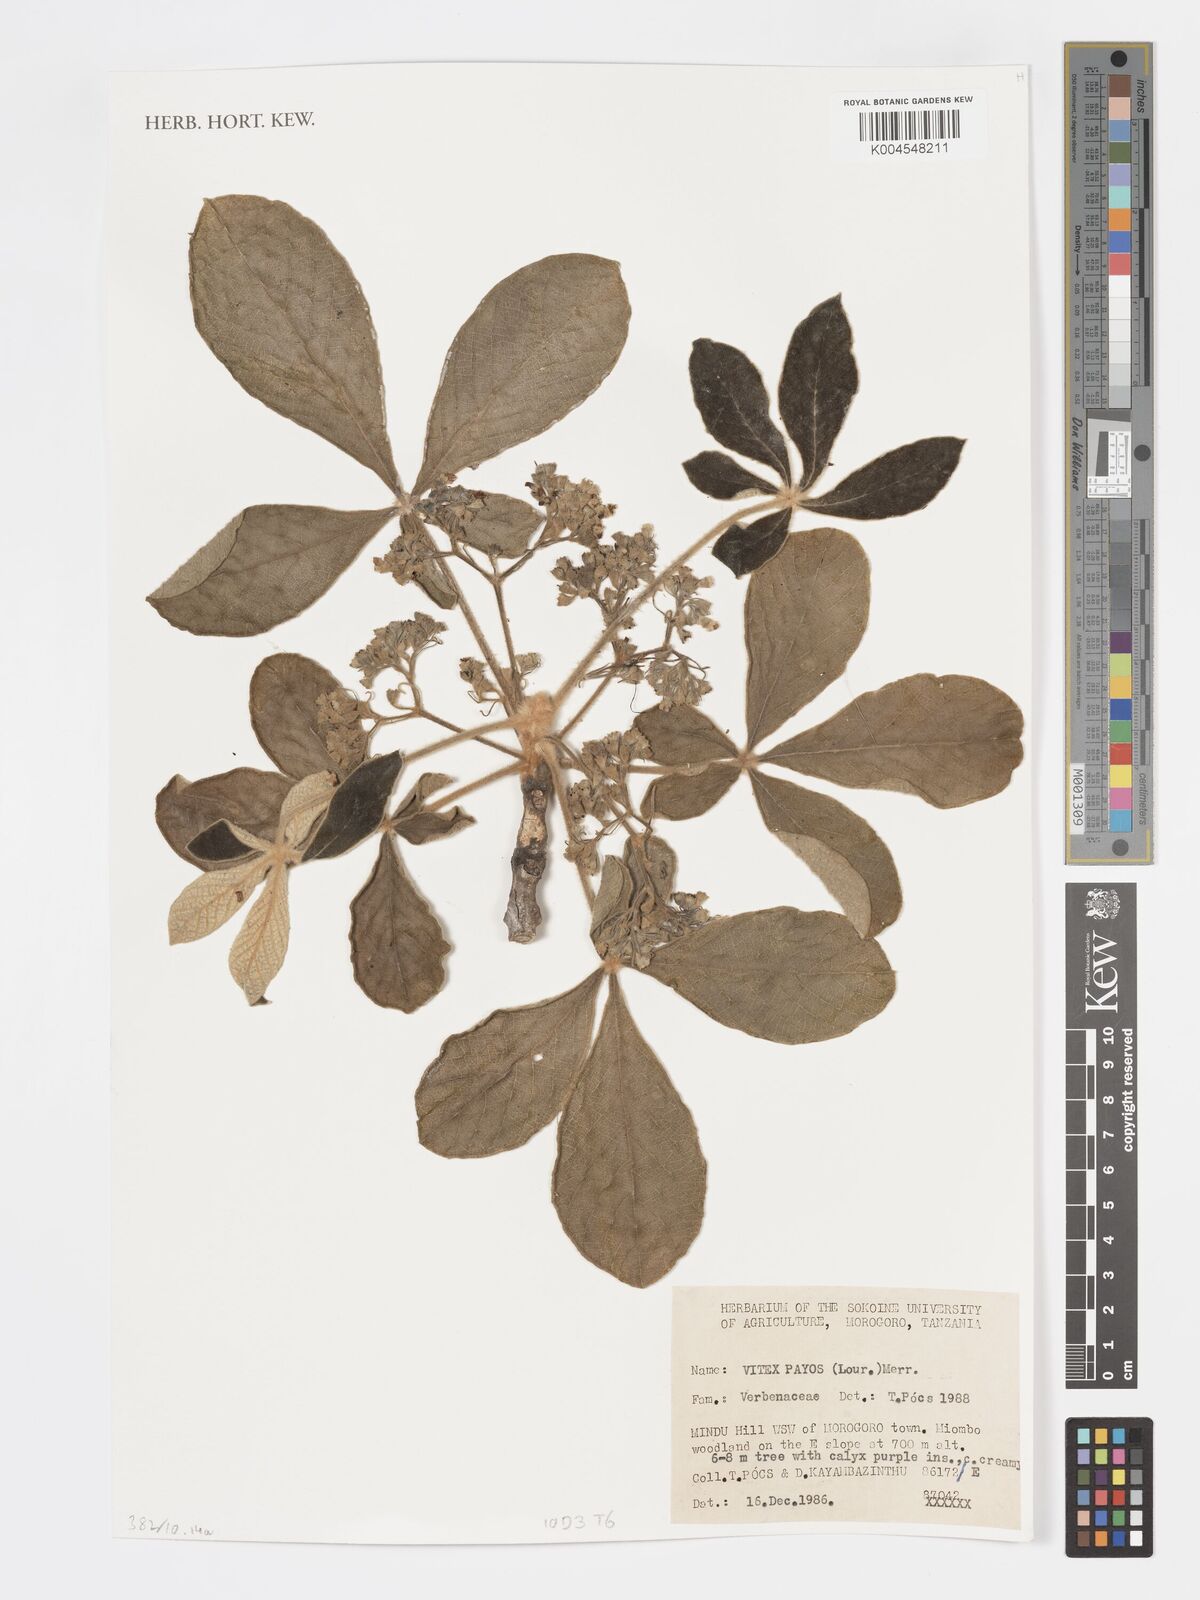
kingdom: Plantae
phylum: Tracheophyta
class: Magnoliopsida
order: Lamiales
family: Lamiaceae
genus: Vitex
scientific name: Vitex payos
